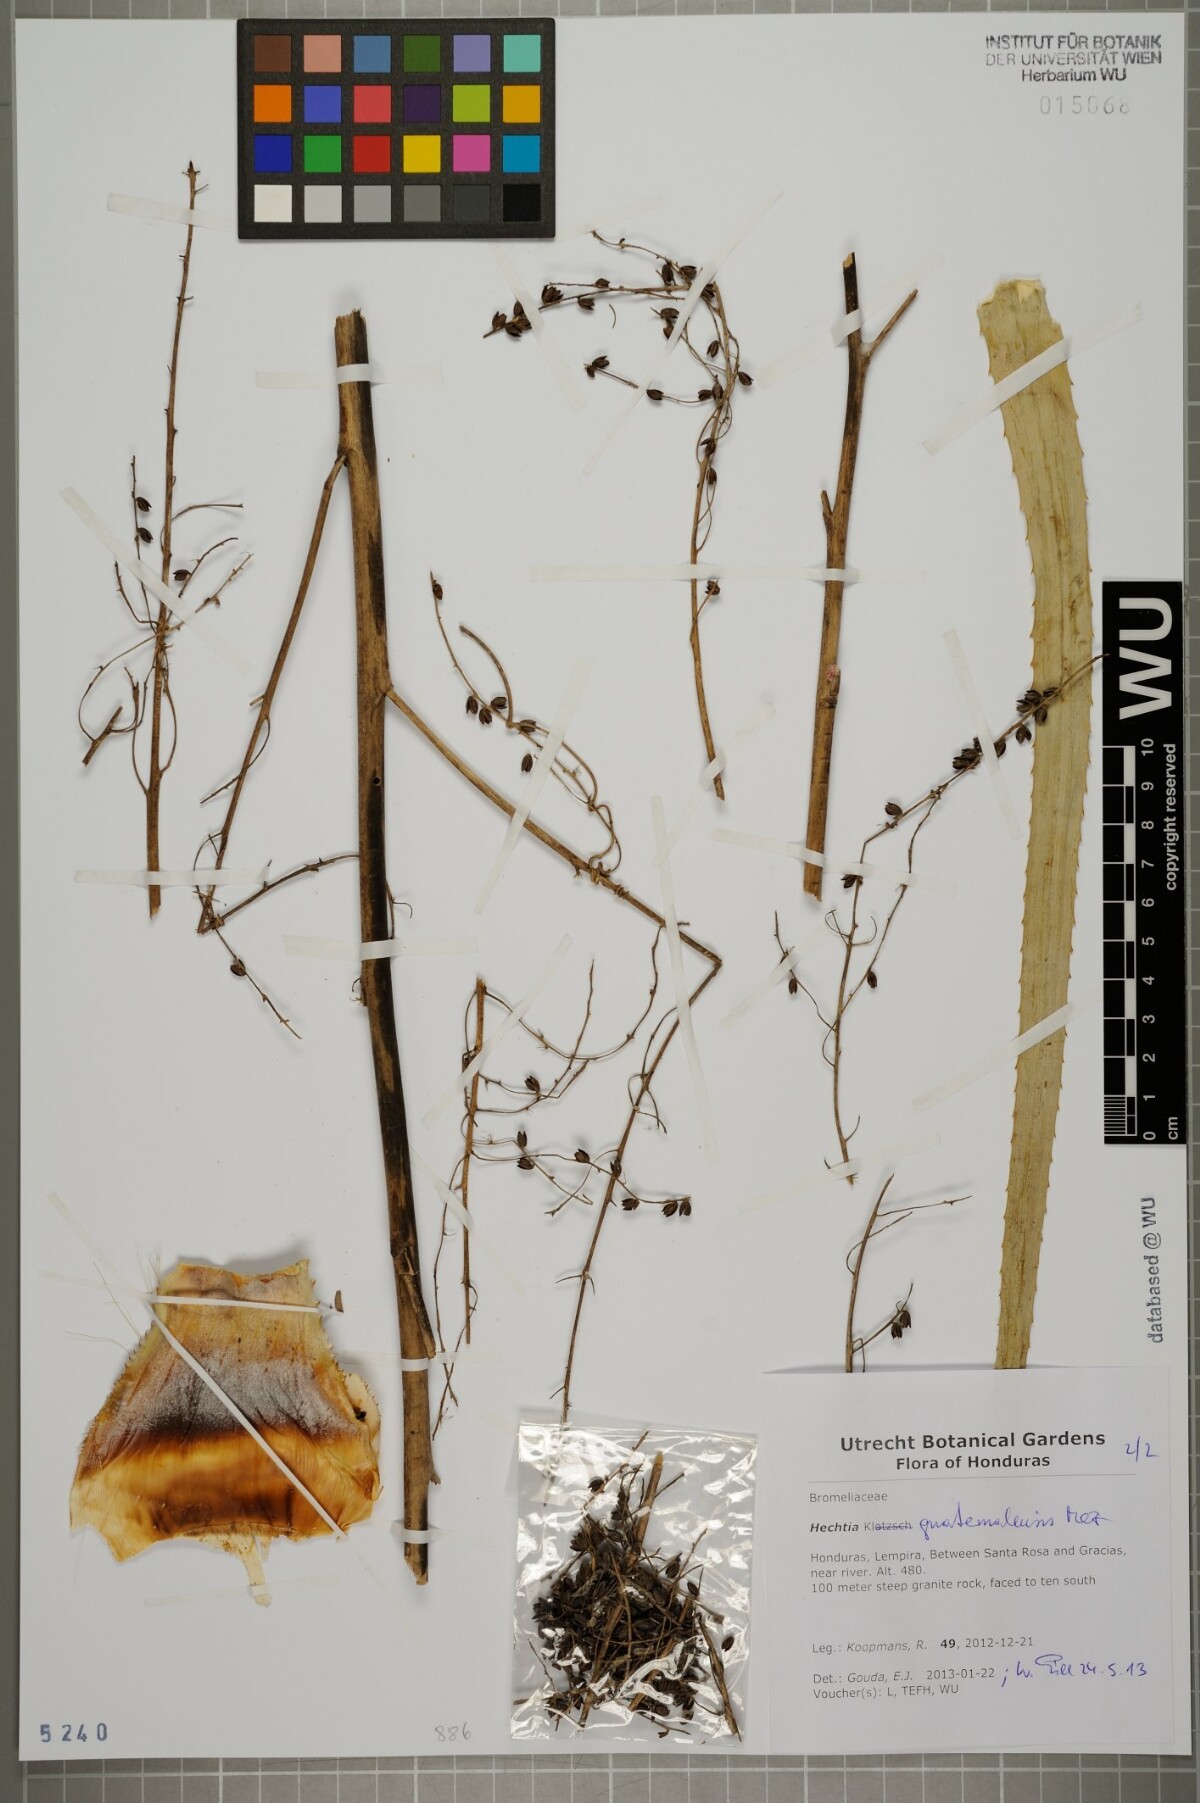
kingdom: Plantae
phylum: Tracheophyta
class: Liliopsida
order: Poales
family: Bromeliaceae
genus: Hechtia
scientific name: Hechtia guatemalensis
